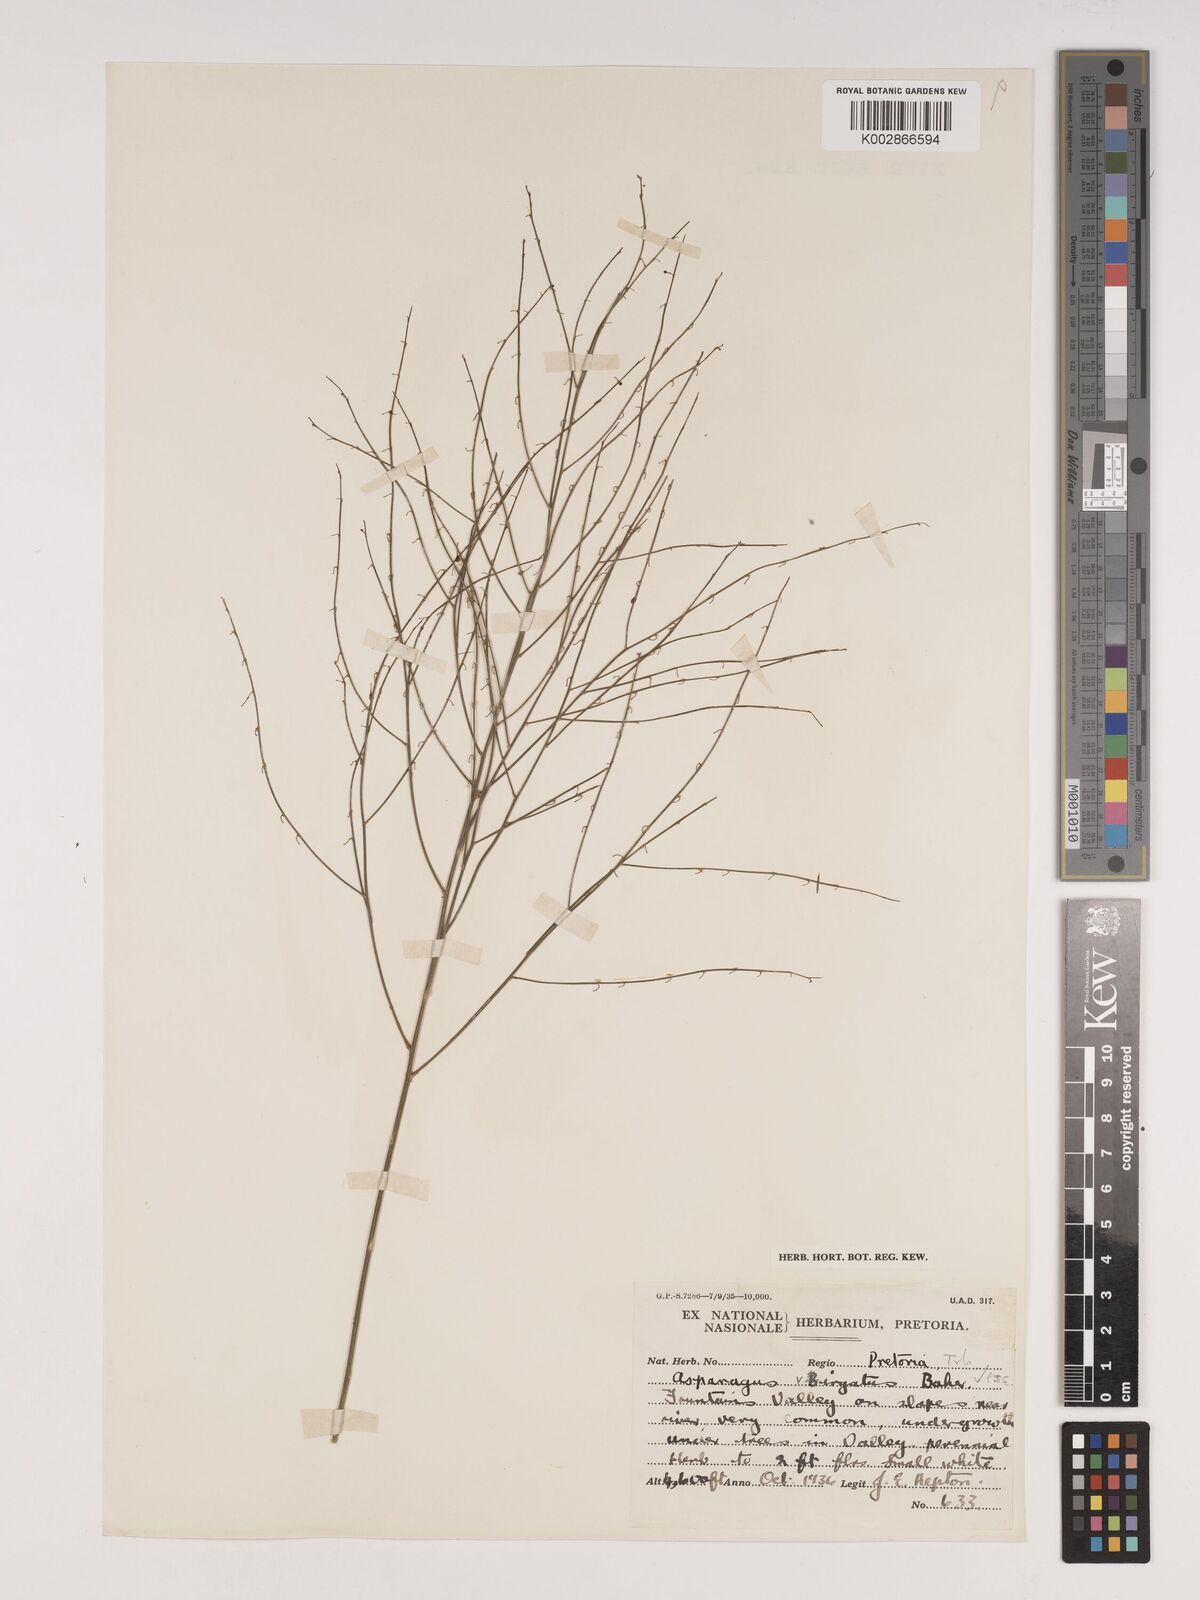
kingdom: Plantae
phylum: Tracheophyta
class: Liliopsida
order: Asparagales
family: Asparagaceae
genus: Asparagus
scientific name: Asparagus virgatus
